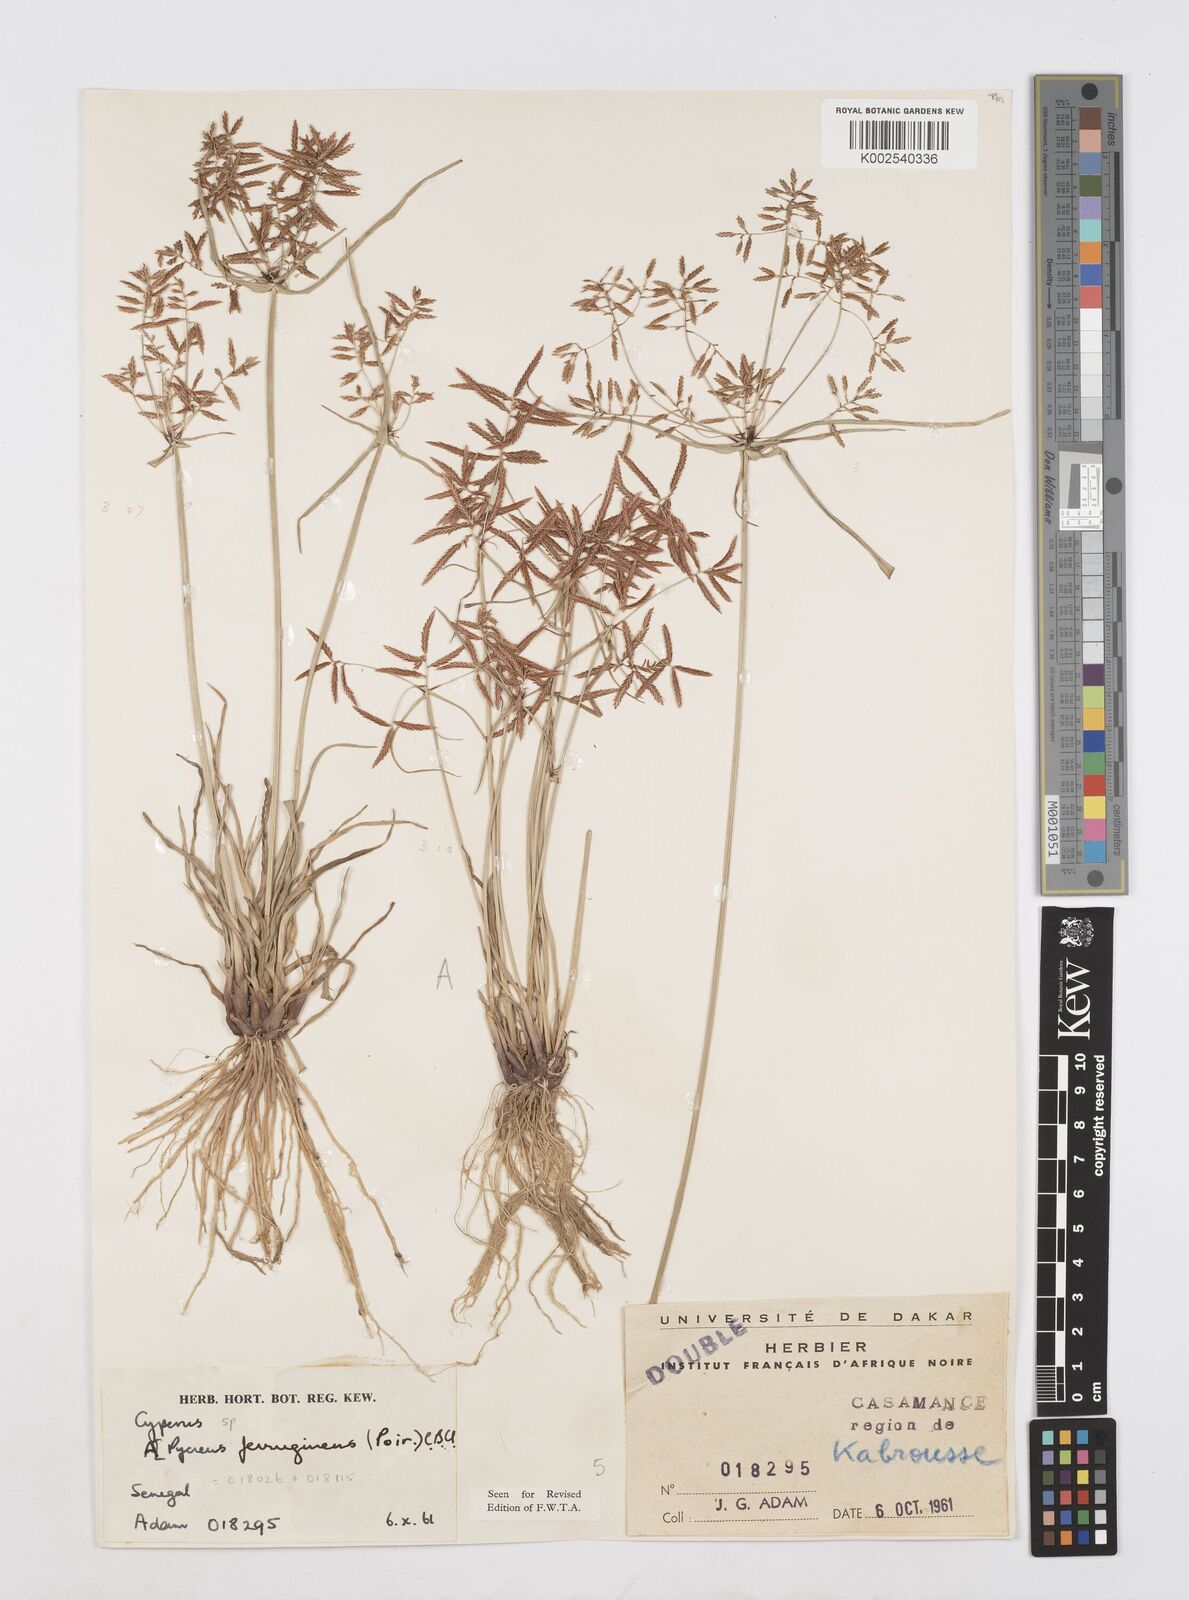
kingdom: Plantae
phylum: Tracheophyta
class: Liliopsida
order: Poales
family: Cyperaceae
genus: Cyperus
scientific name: Cyperus intactus
